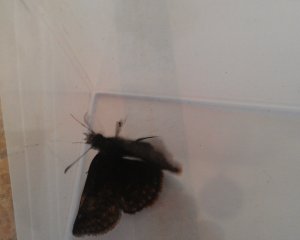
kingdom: Animalia
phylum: Arthropoda
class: Insecta
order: Lepidoptera
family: Hesperiidae
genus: Erynnis
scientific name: Erynnis icelus
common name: Dreamy Duskywing
